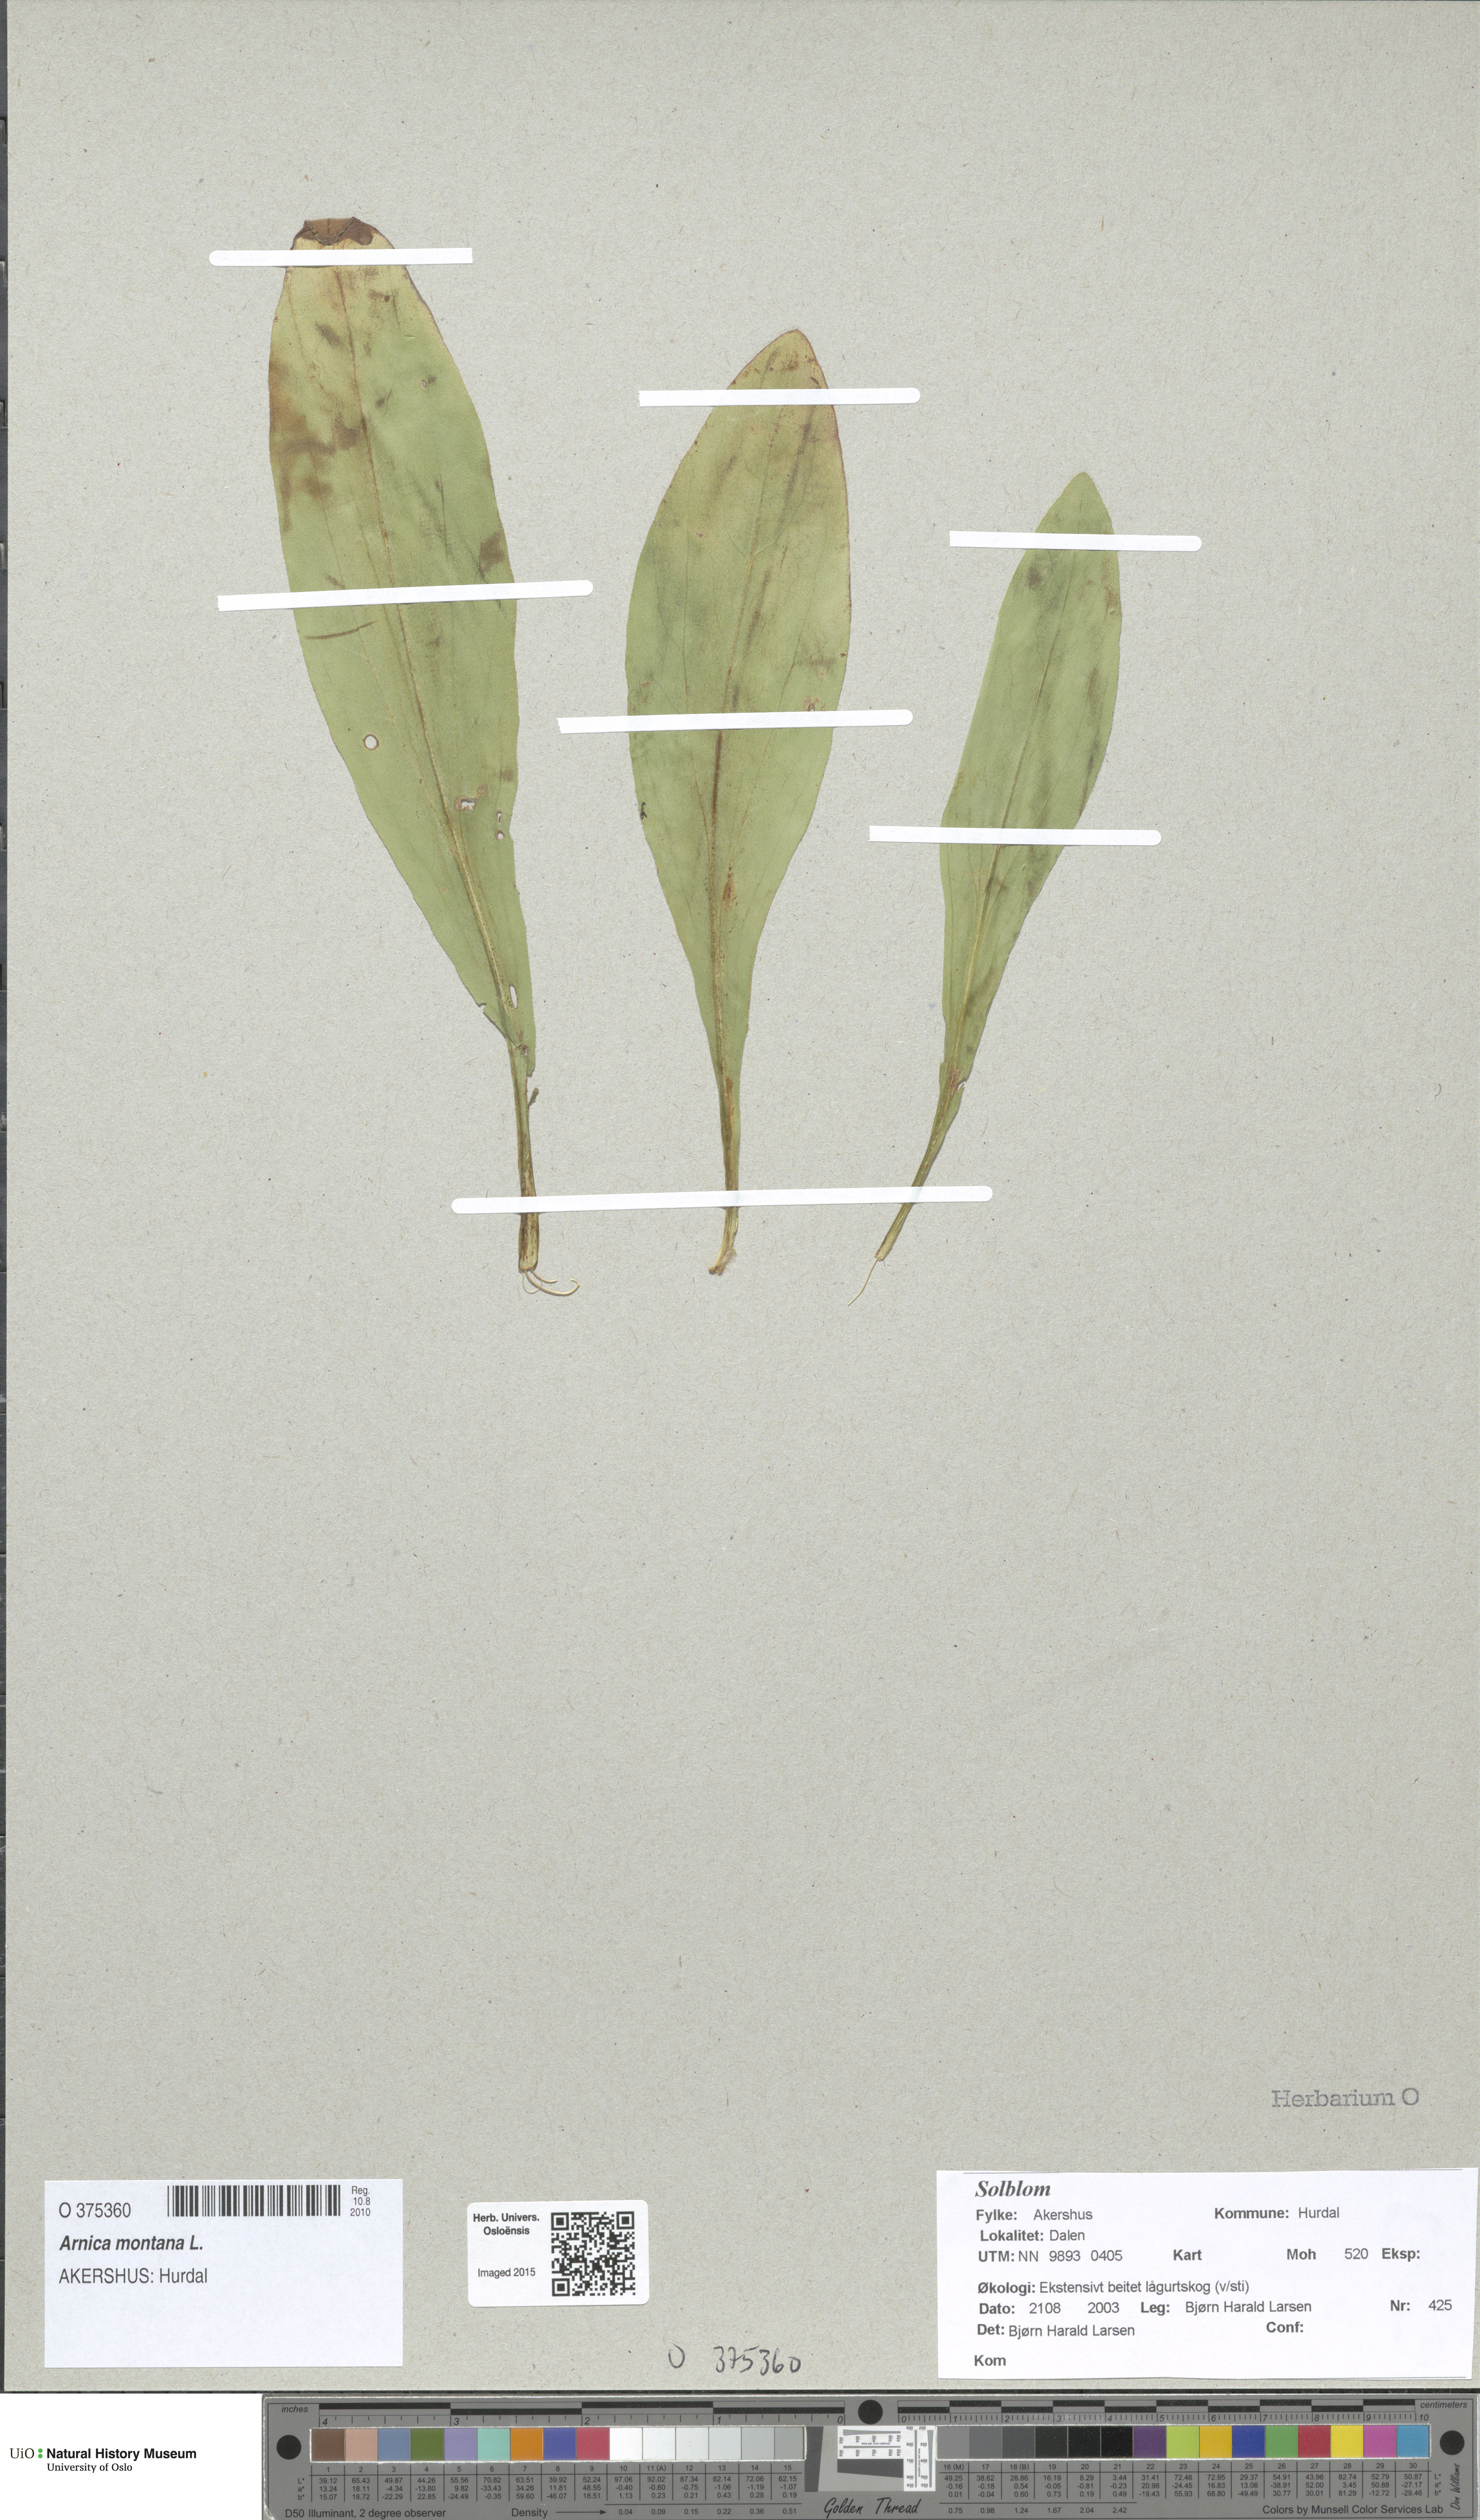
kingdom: Plantae
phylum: Tracheophyta
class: Magnoliopsida
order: Asterales
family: Asteraceae
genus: Arnica
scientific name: Arnica montana
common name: Leopard's bane
